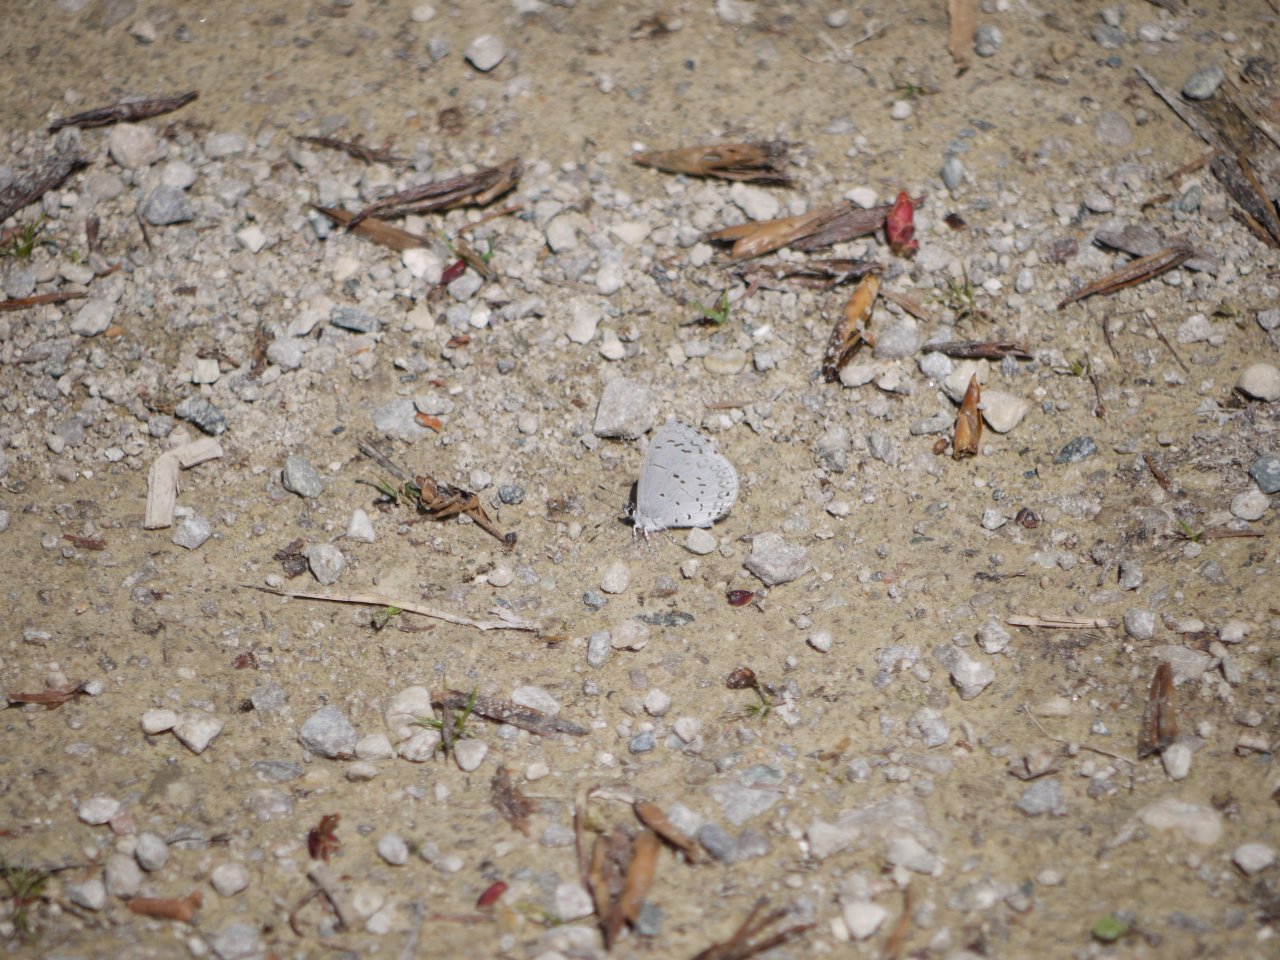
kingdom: Animalia
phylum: Arthropoda
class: Insecta
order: Lepidoptera
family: Lycaenidae
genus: Celastrina
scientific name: Celastrina
